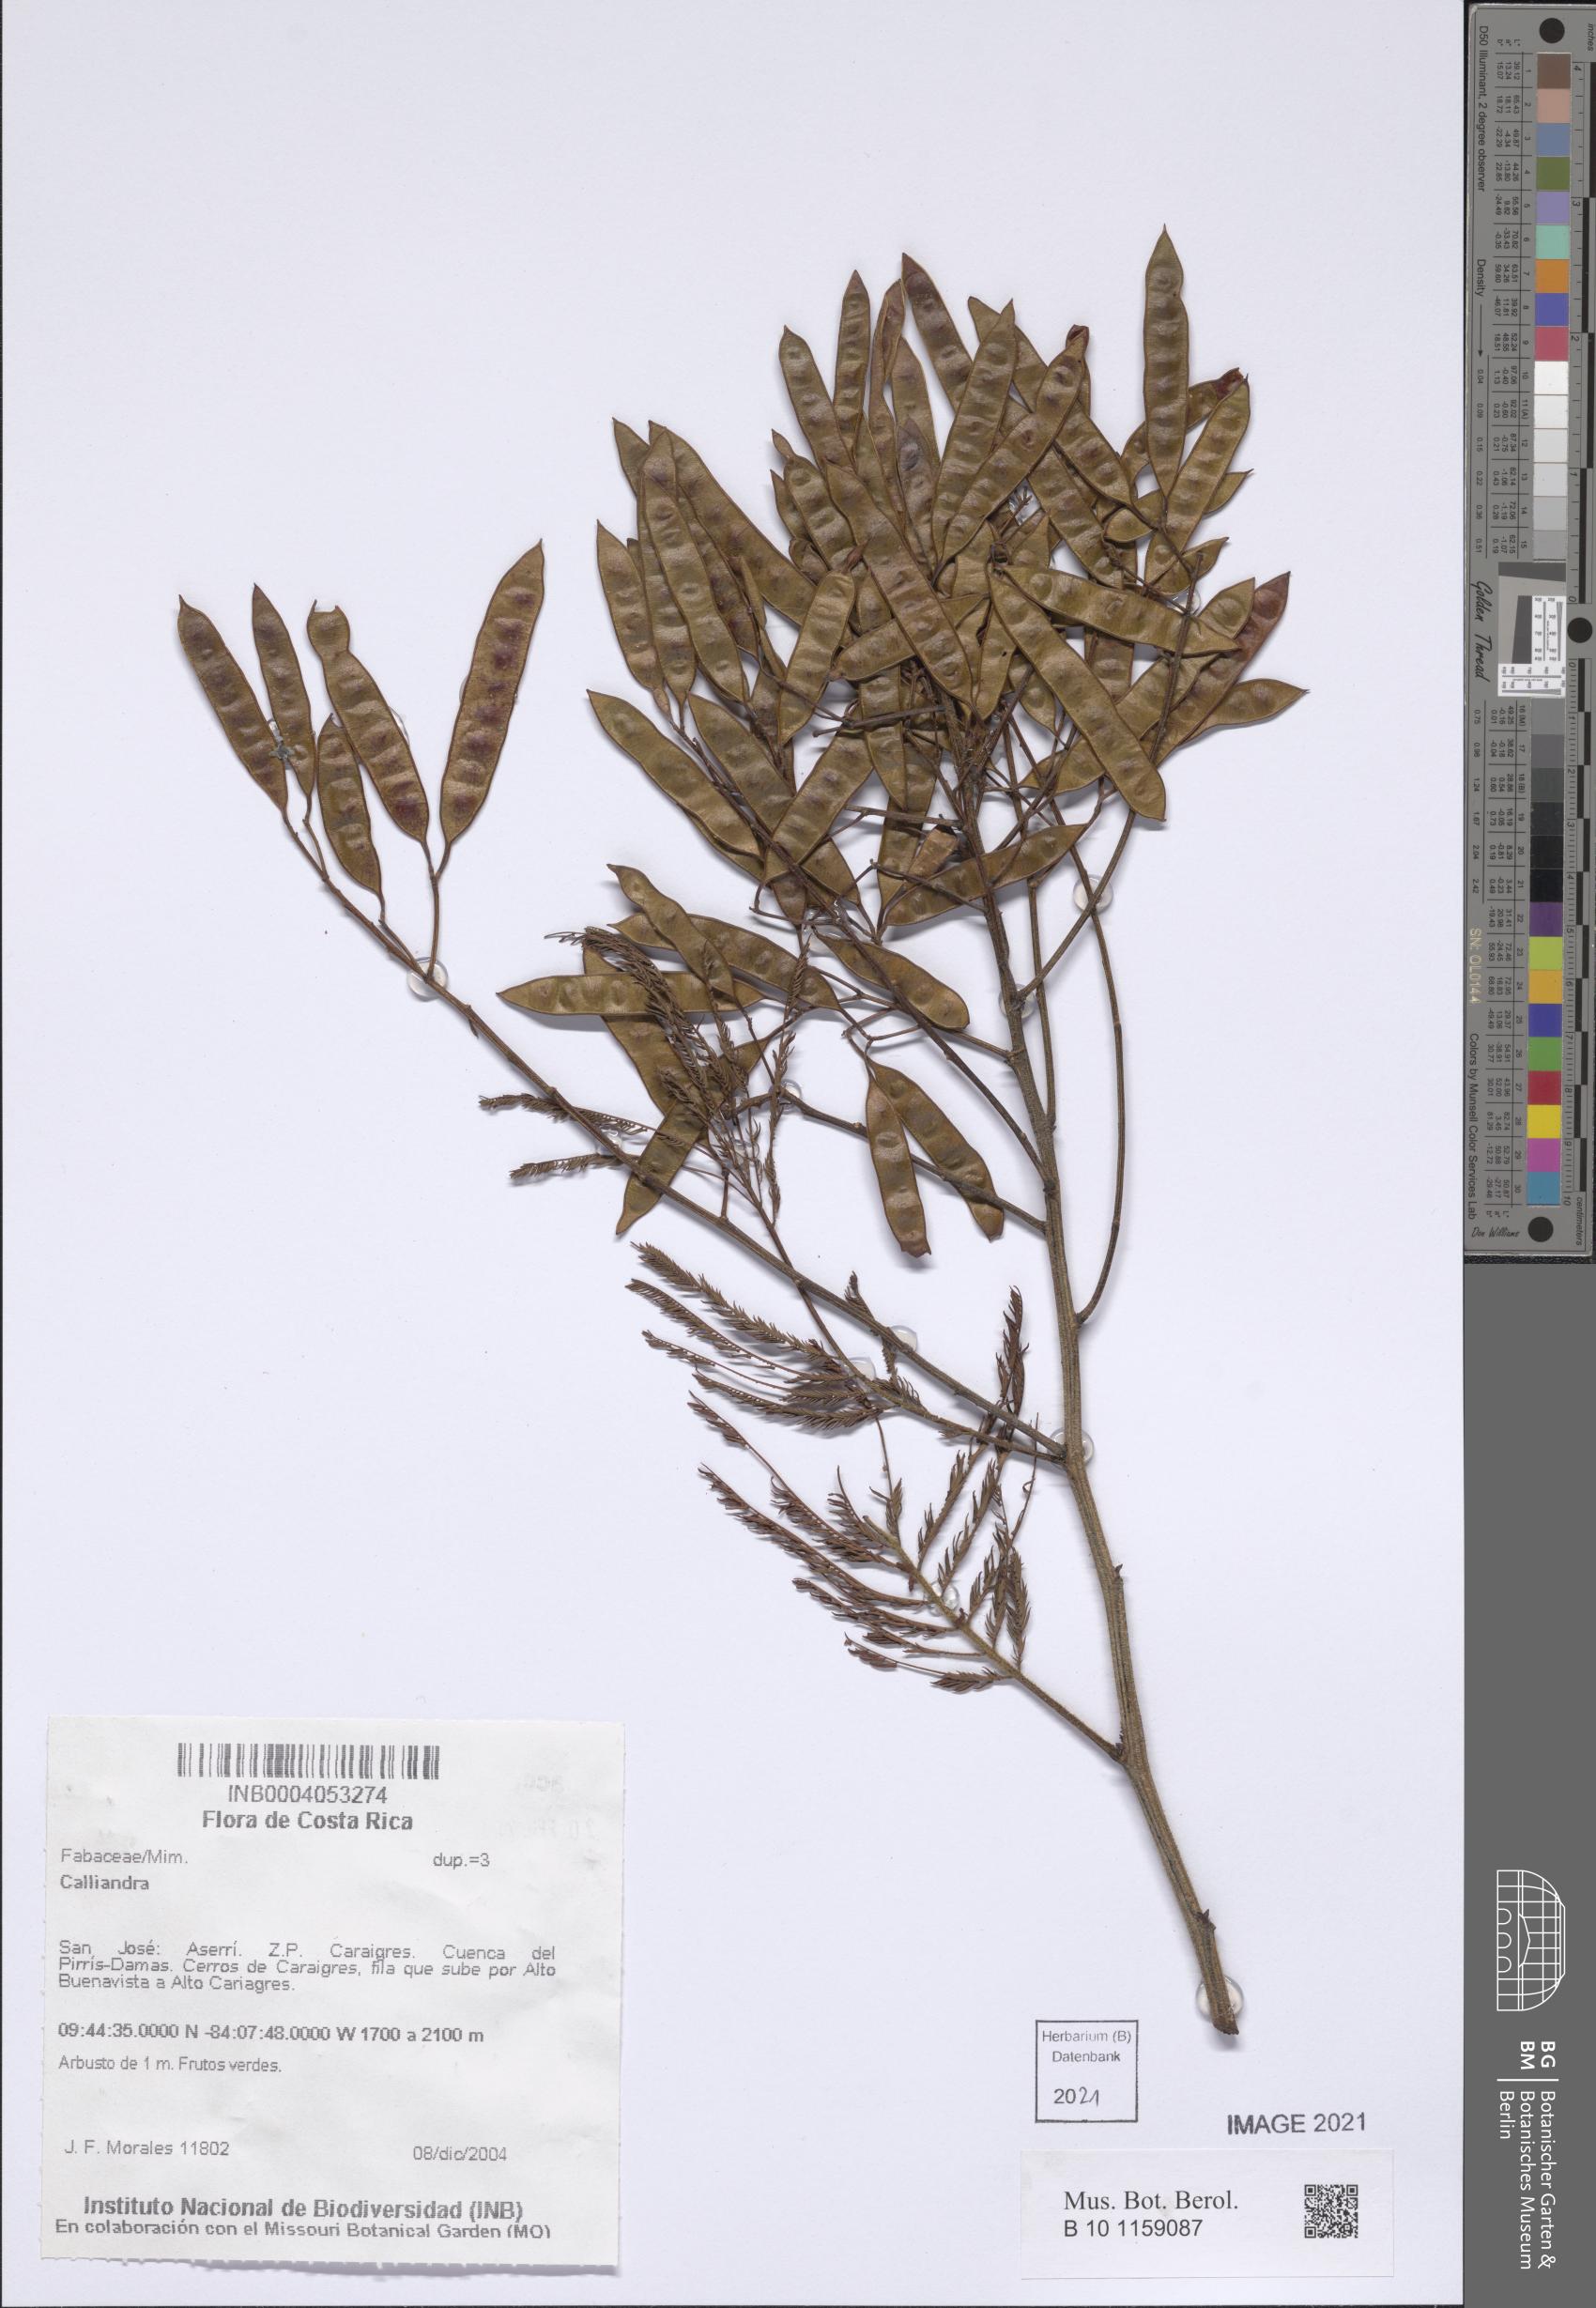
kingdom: Plantae
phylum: Tracheophyta
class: Magnoliopsida
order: Fabales
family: Fabaceae
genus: Calliandra
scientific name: Calliandra
